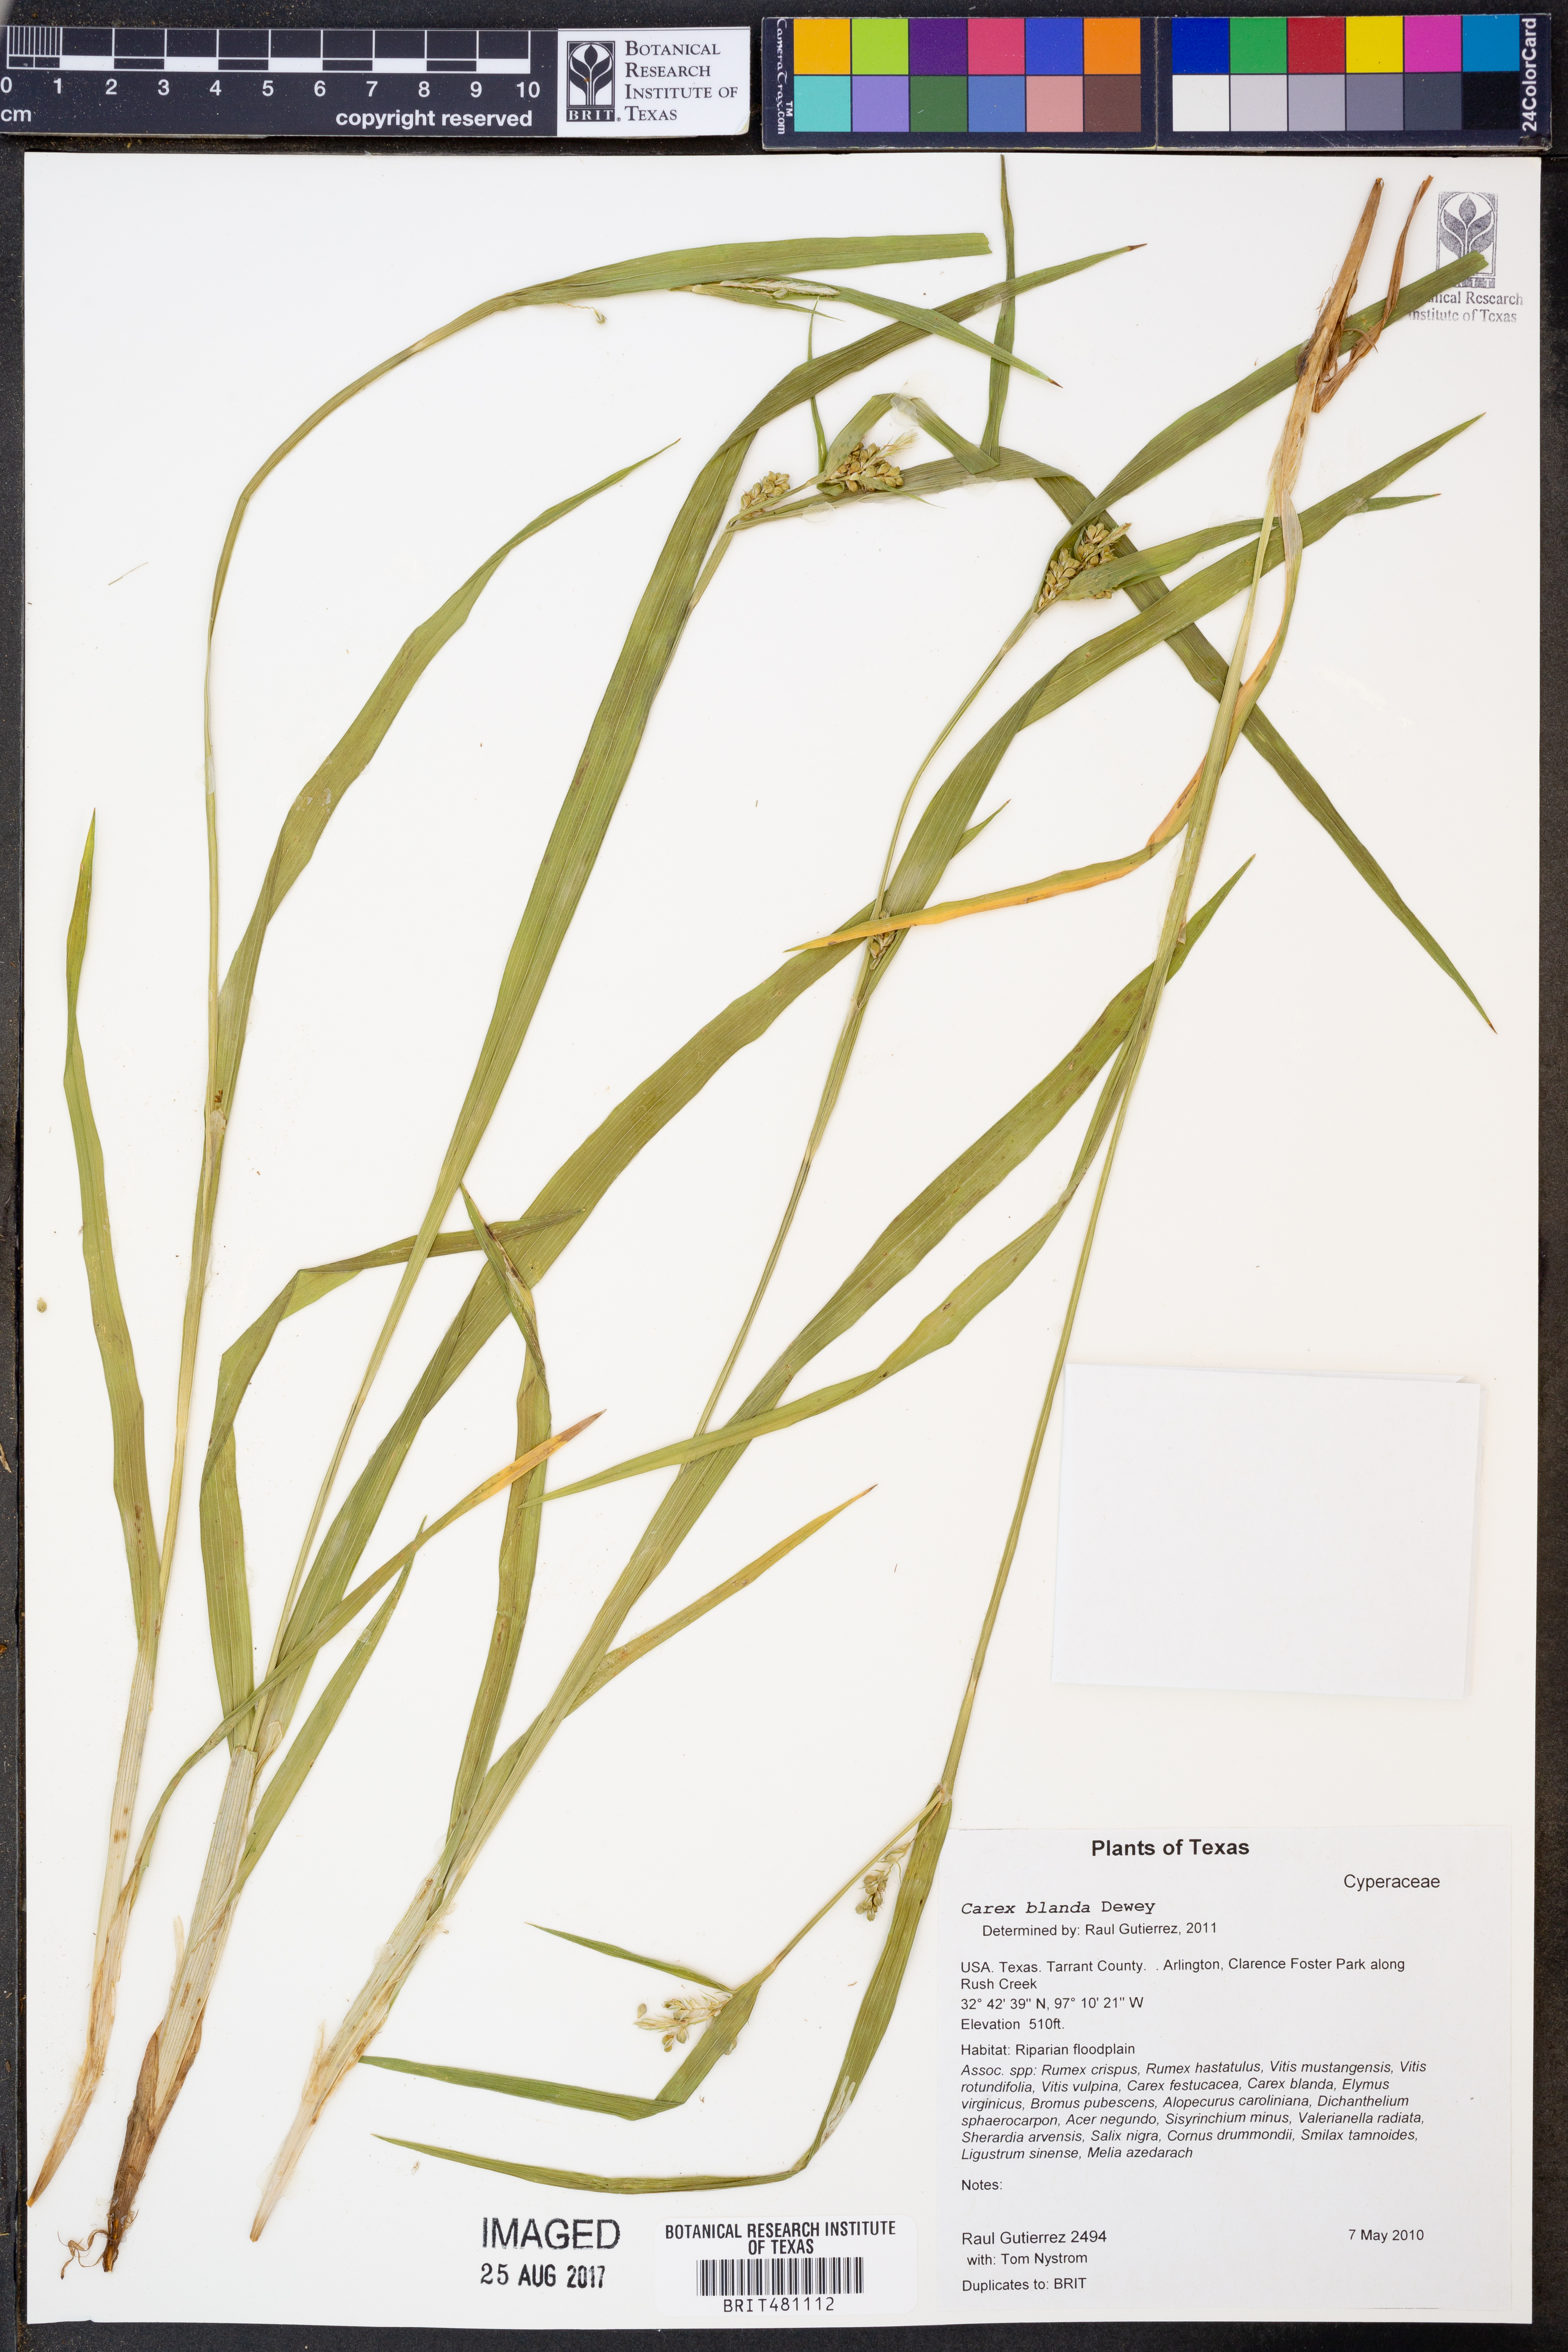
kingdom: Plantae
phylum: Tracheophyta
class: Liliopsida
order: Poales
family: Cyperaceae
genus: Carex
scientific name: Carex blanda
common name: Bland sedge
